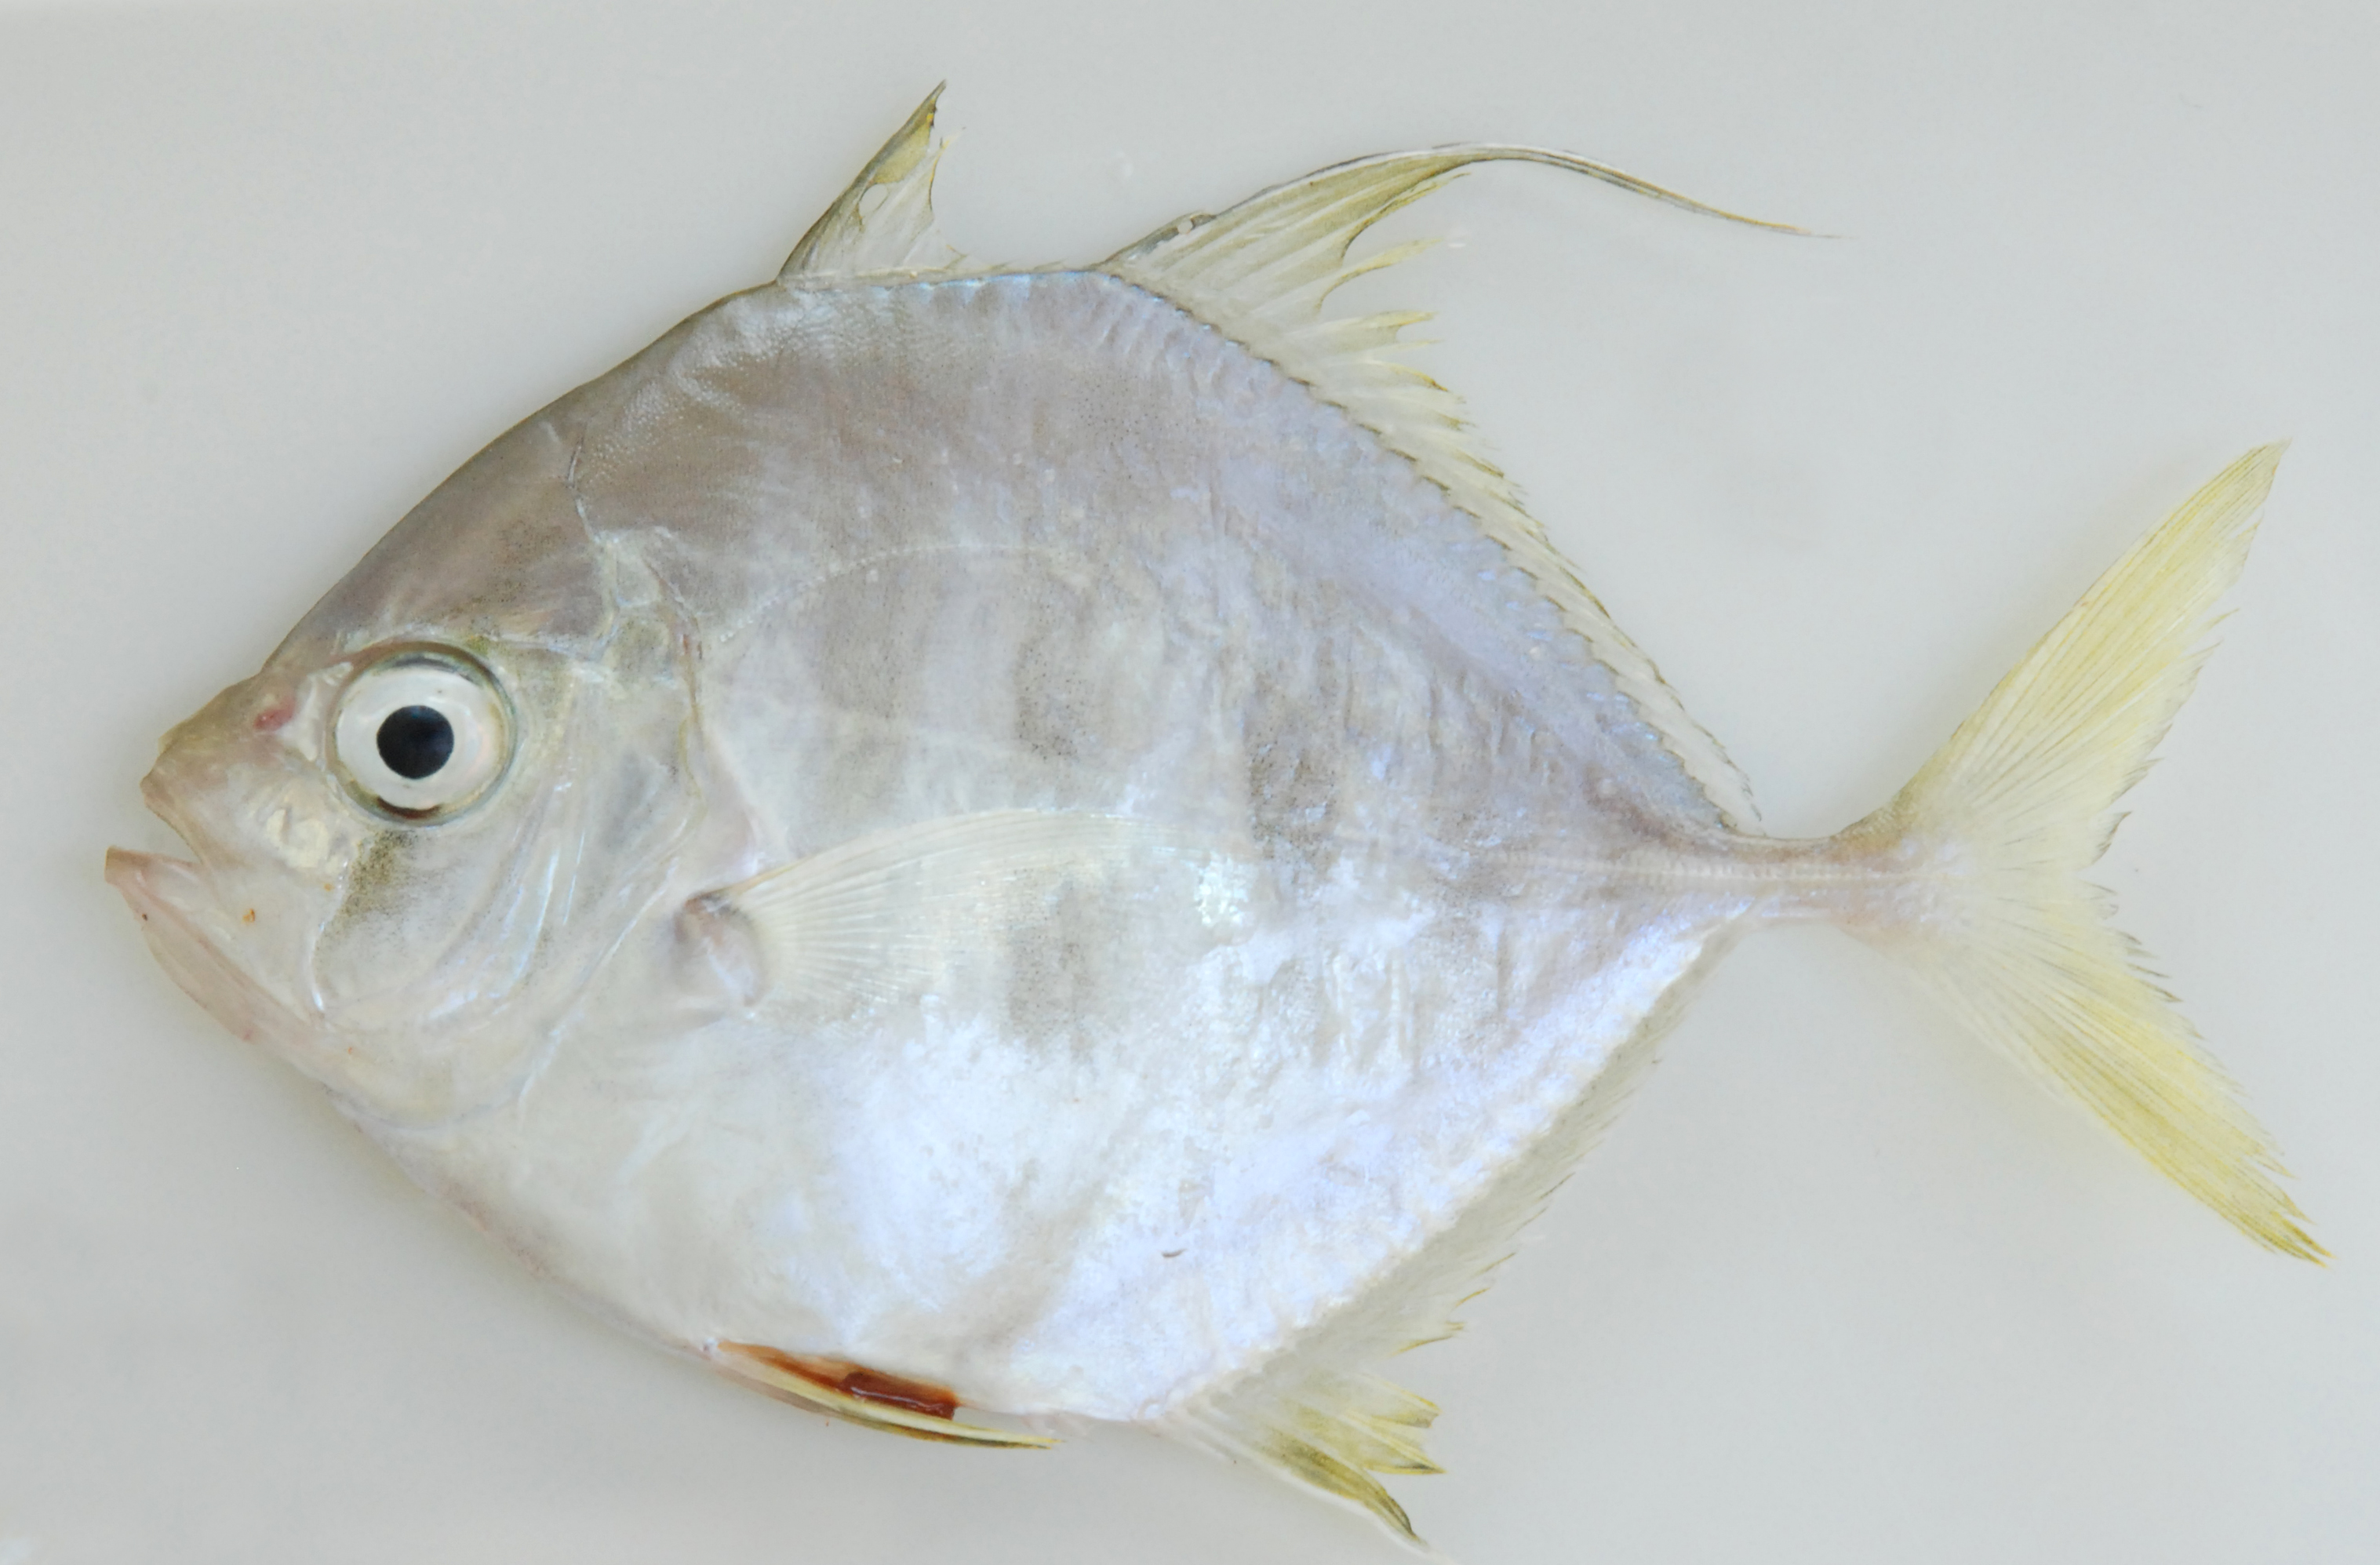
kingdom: Animalia
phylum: Chordata
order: Perciformes
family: Carangidae
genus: Carangoides
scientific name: Carangoides
